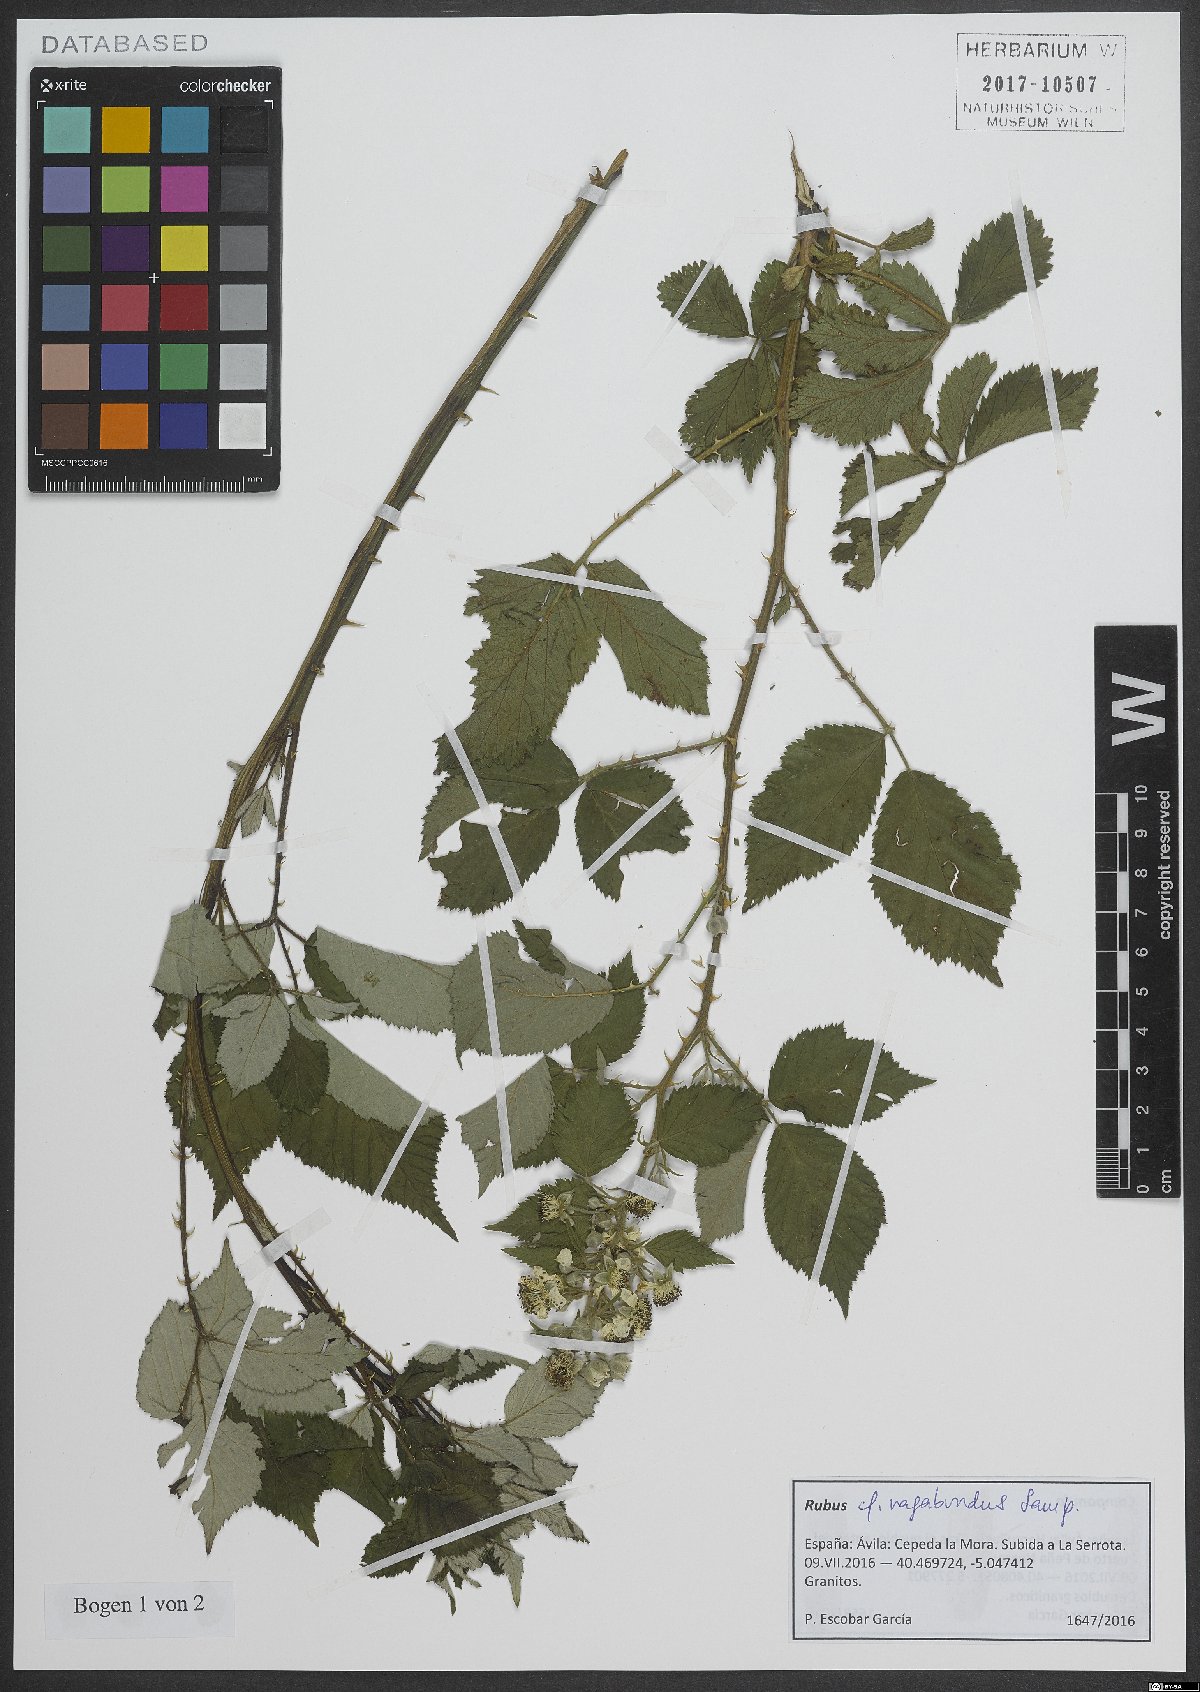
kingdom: Plantae
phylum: Tracheophyta
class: Magnoliopsida
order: Rosales
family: Rosaceae
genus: Rubus
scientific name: Rubus vagabundus
